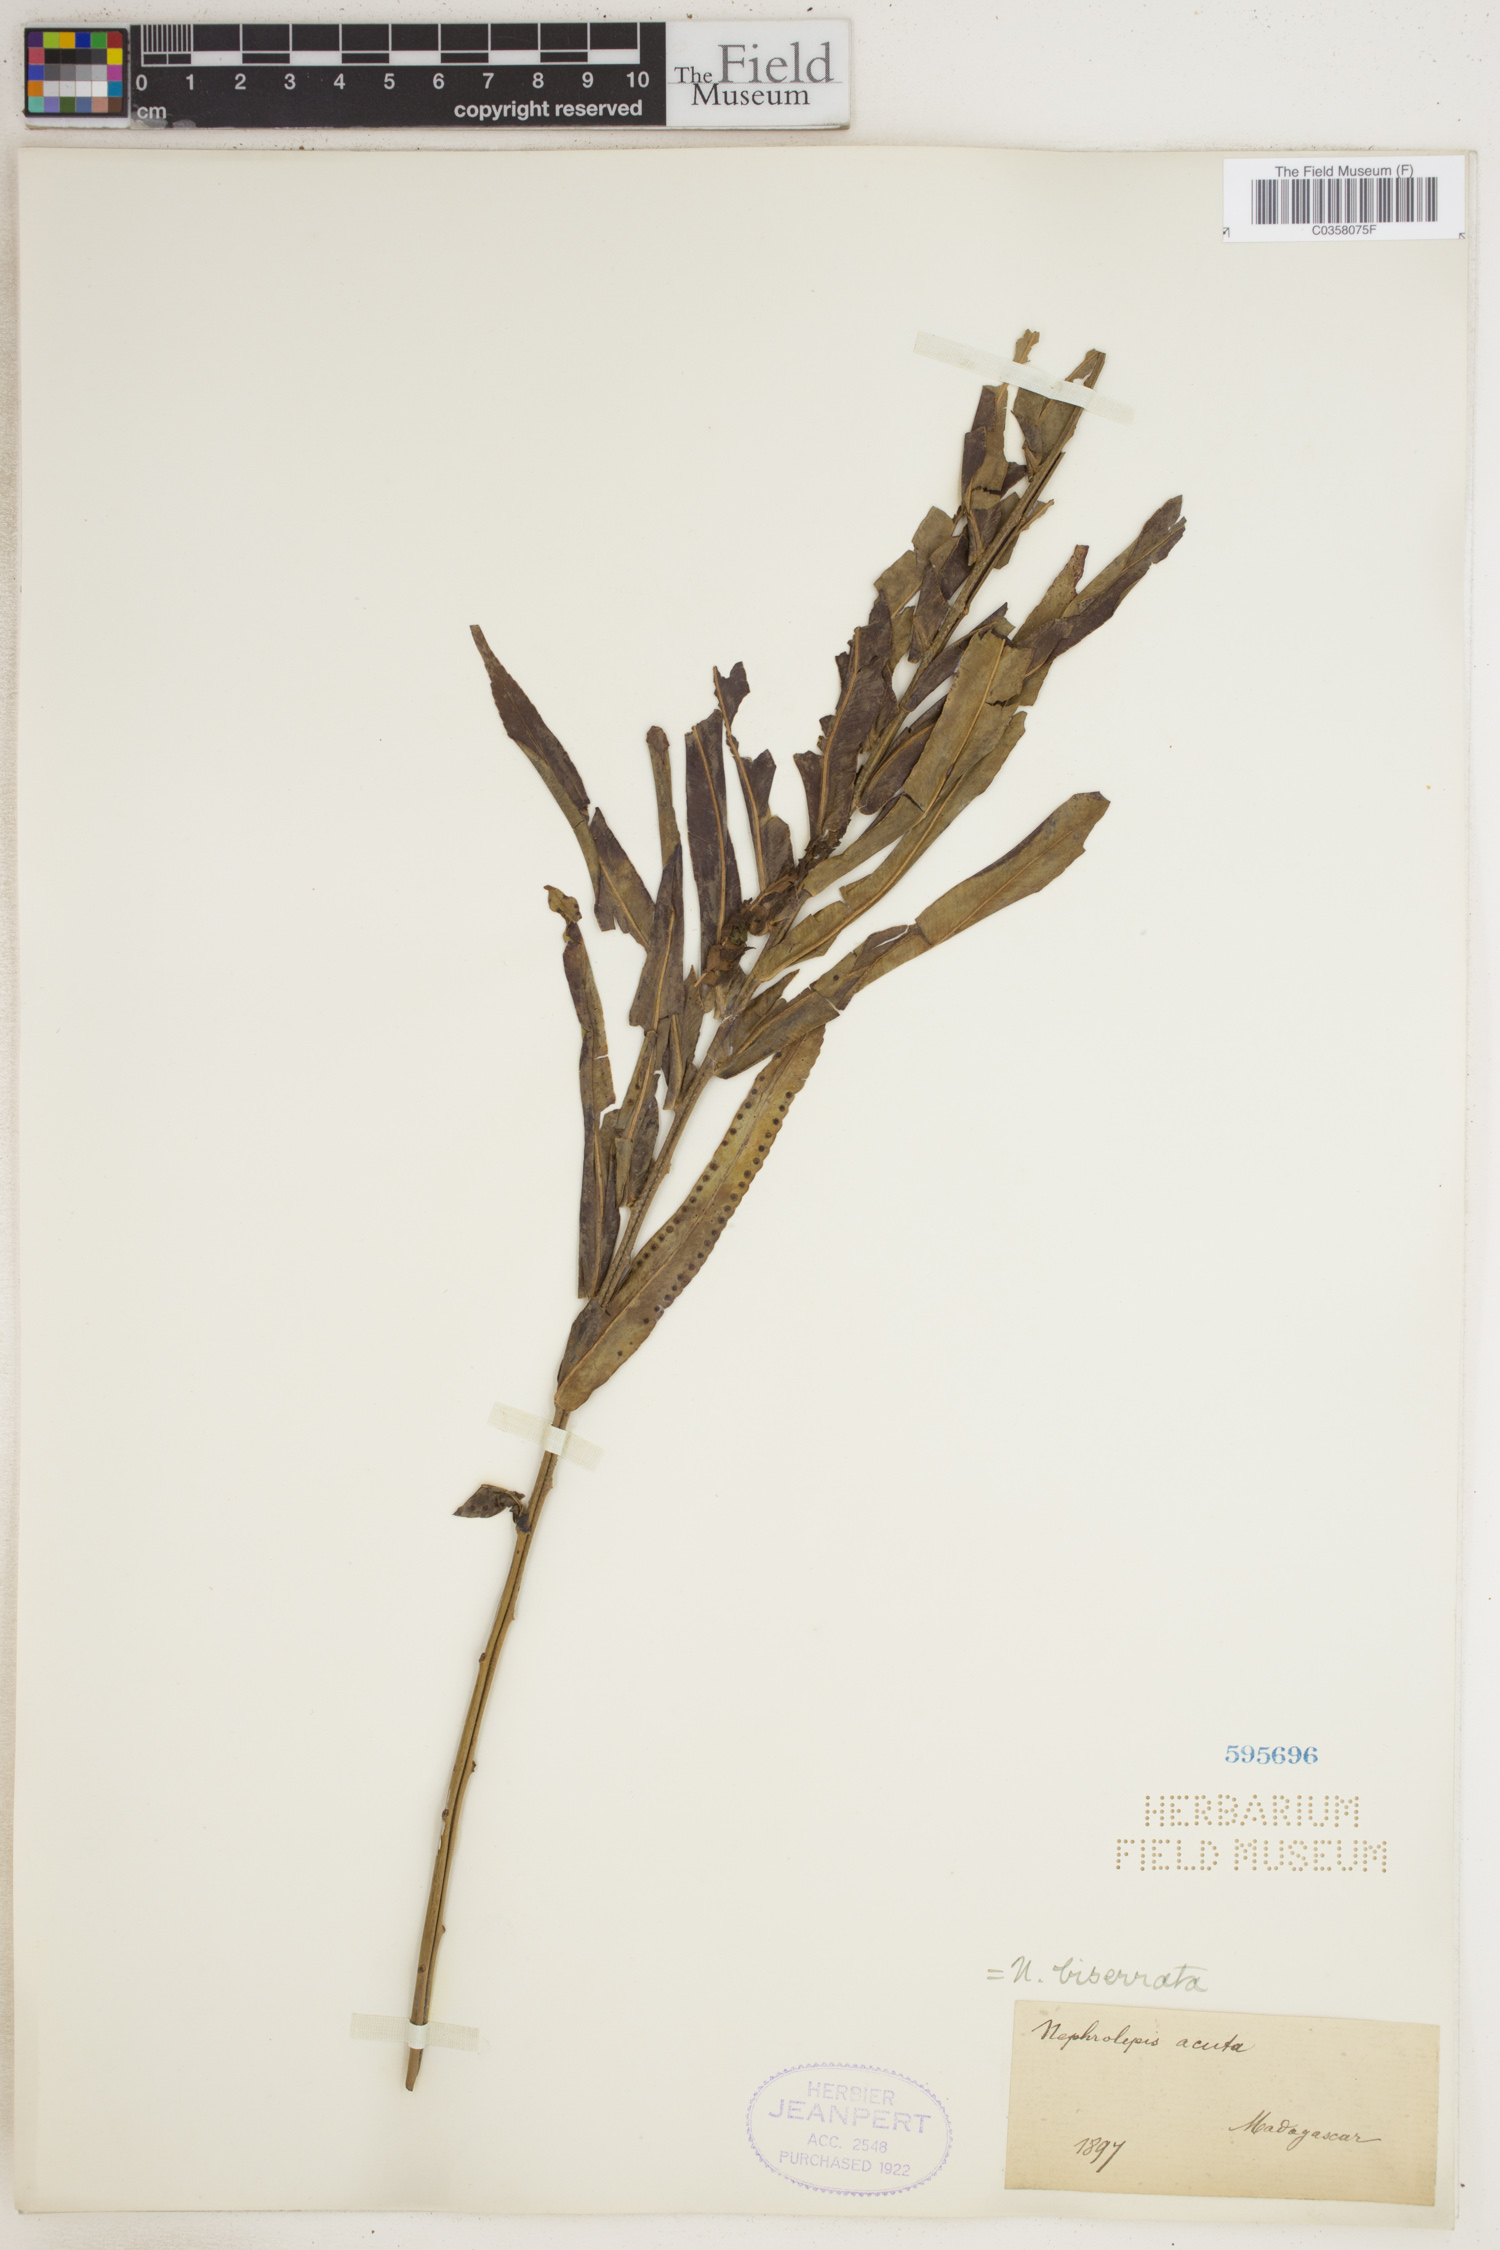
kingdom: Plantae
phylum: Tracheophyta
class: Polypodiopsida
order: Polypodiales
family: Nephrolepidaceae
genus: Nephrolepis
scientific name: Nephrolepis biserrata
